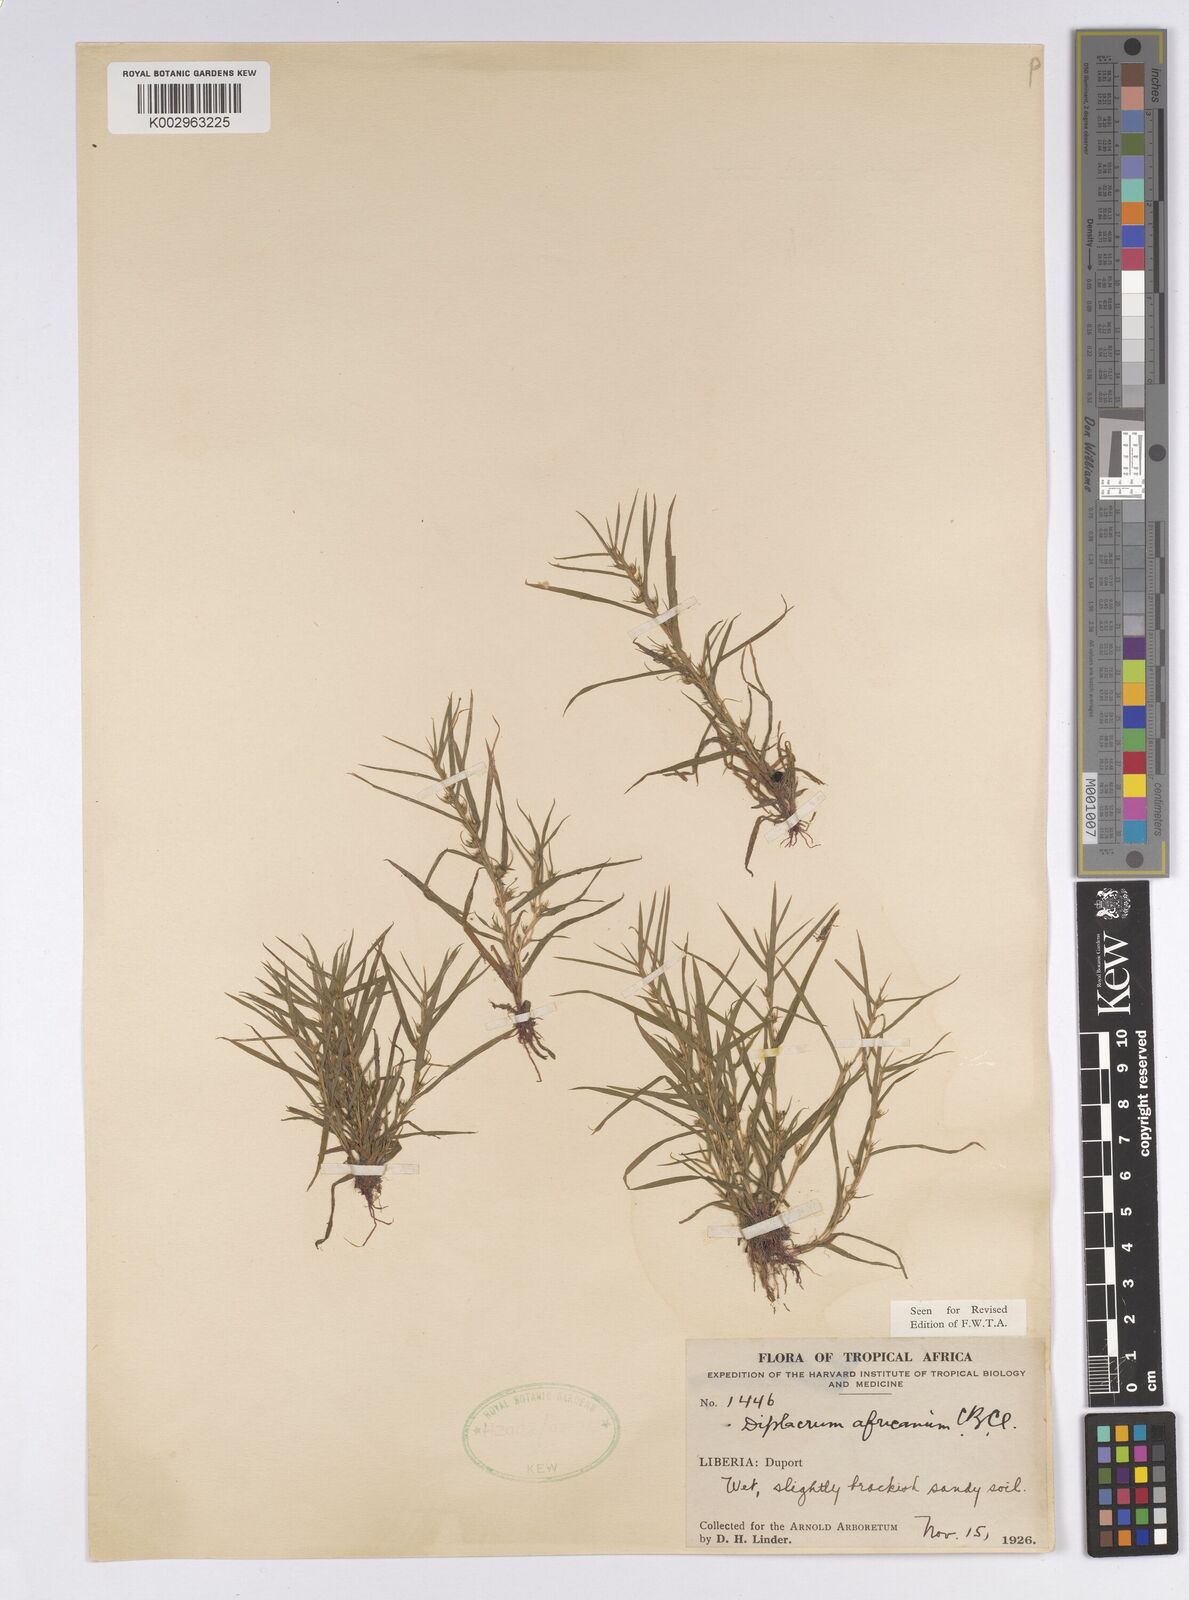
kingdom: Plantae
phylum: Tracheophyta
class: Liliopsida
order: Poales
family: Cyperaceae
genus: Diplacrum
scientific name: Diplacrum africanum
